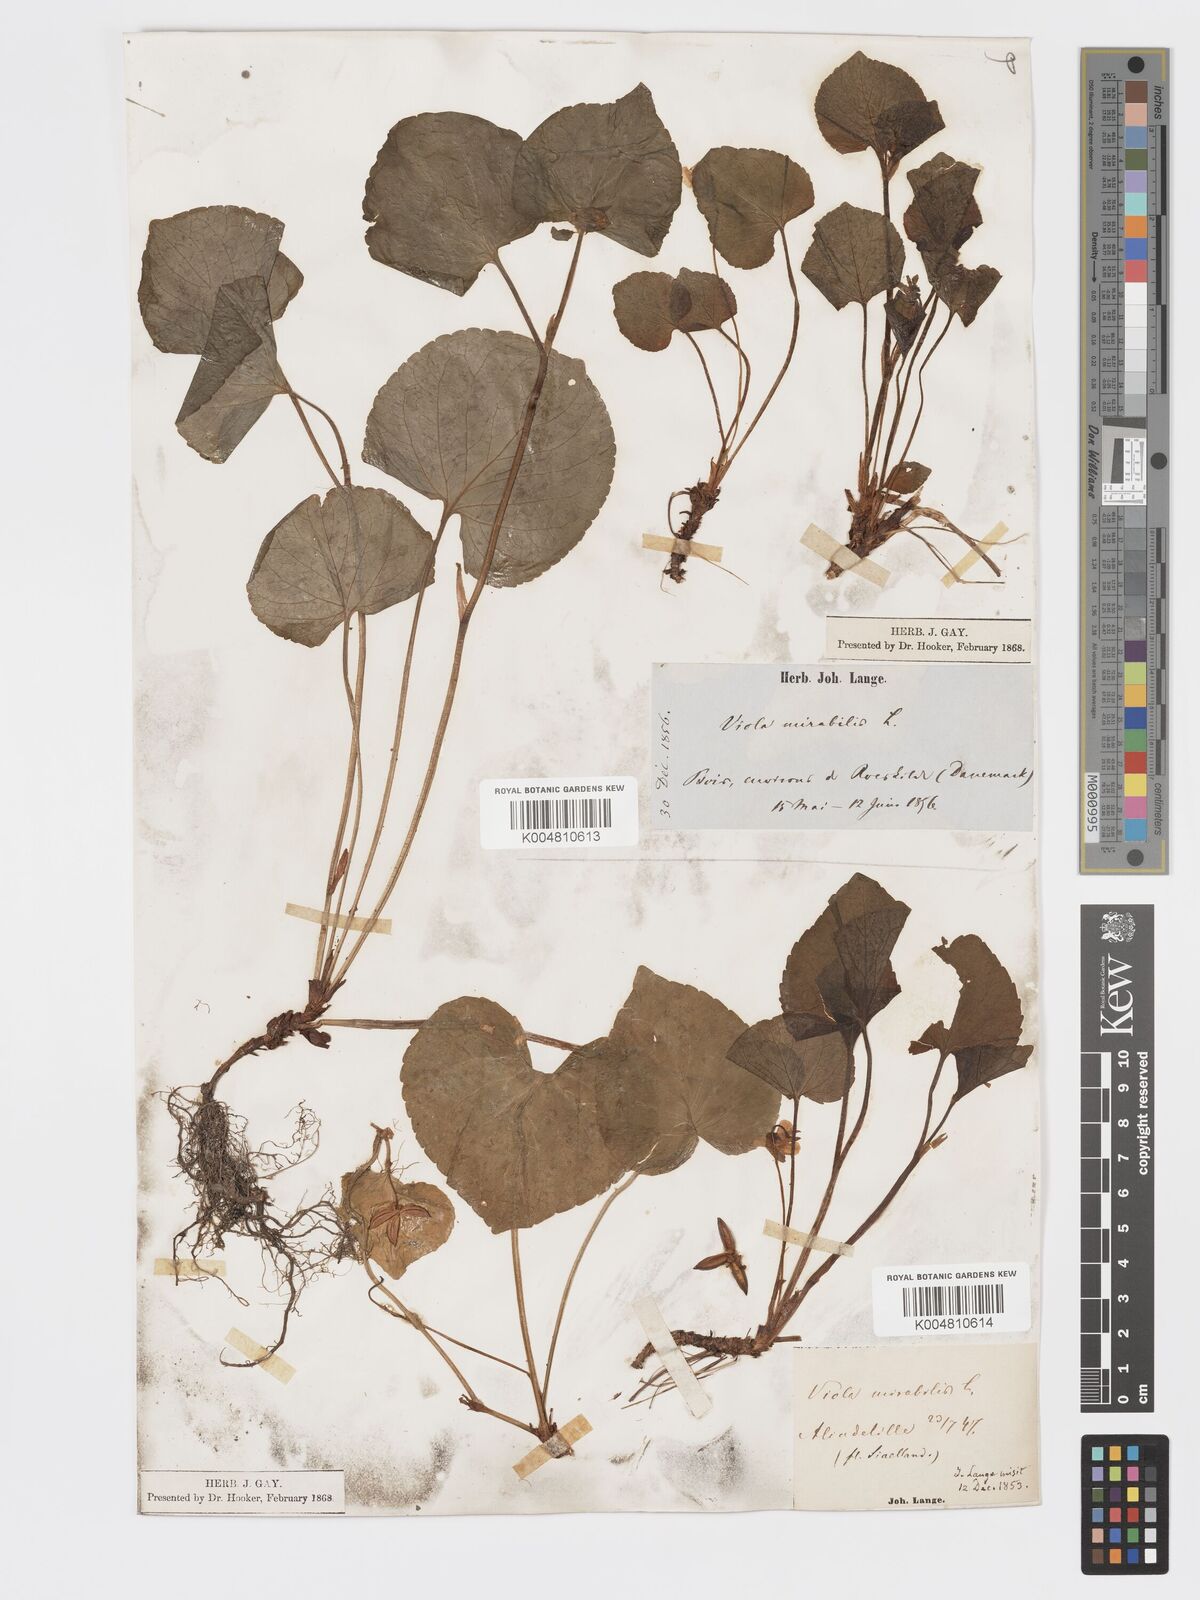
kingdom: Plantae
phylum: Tracheophyta
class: Magnoliopsida
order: Malpighiales
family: Violaceae
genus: Viola
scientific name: Viola mirabilis
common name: Wonder violet
